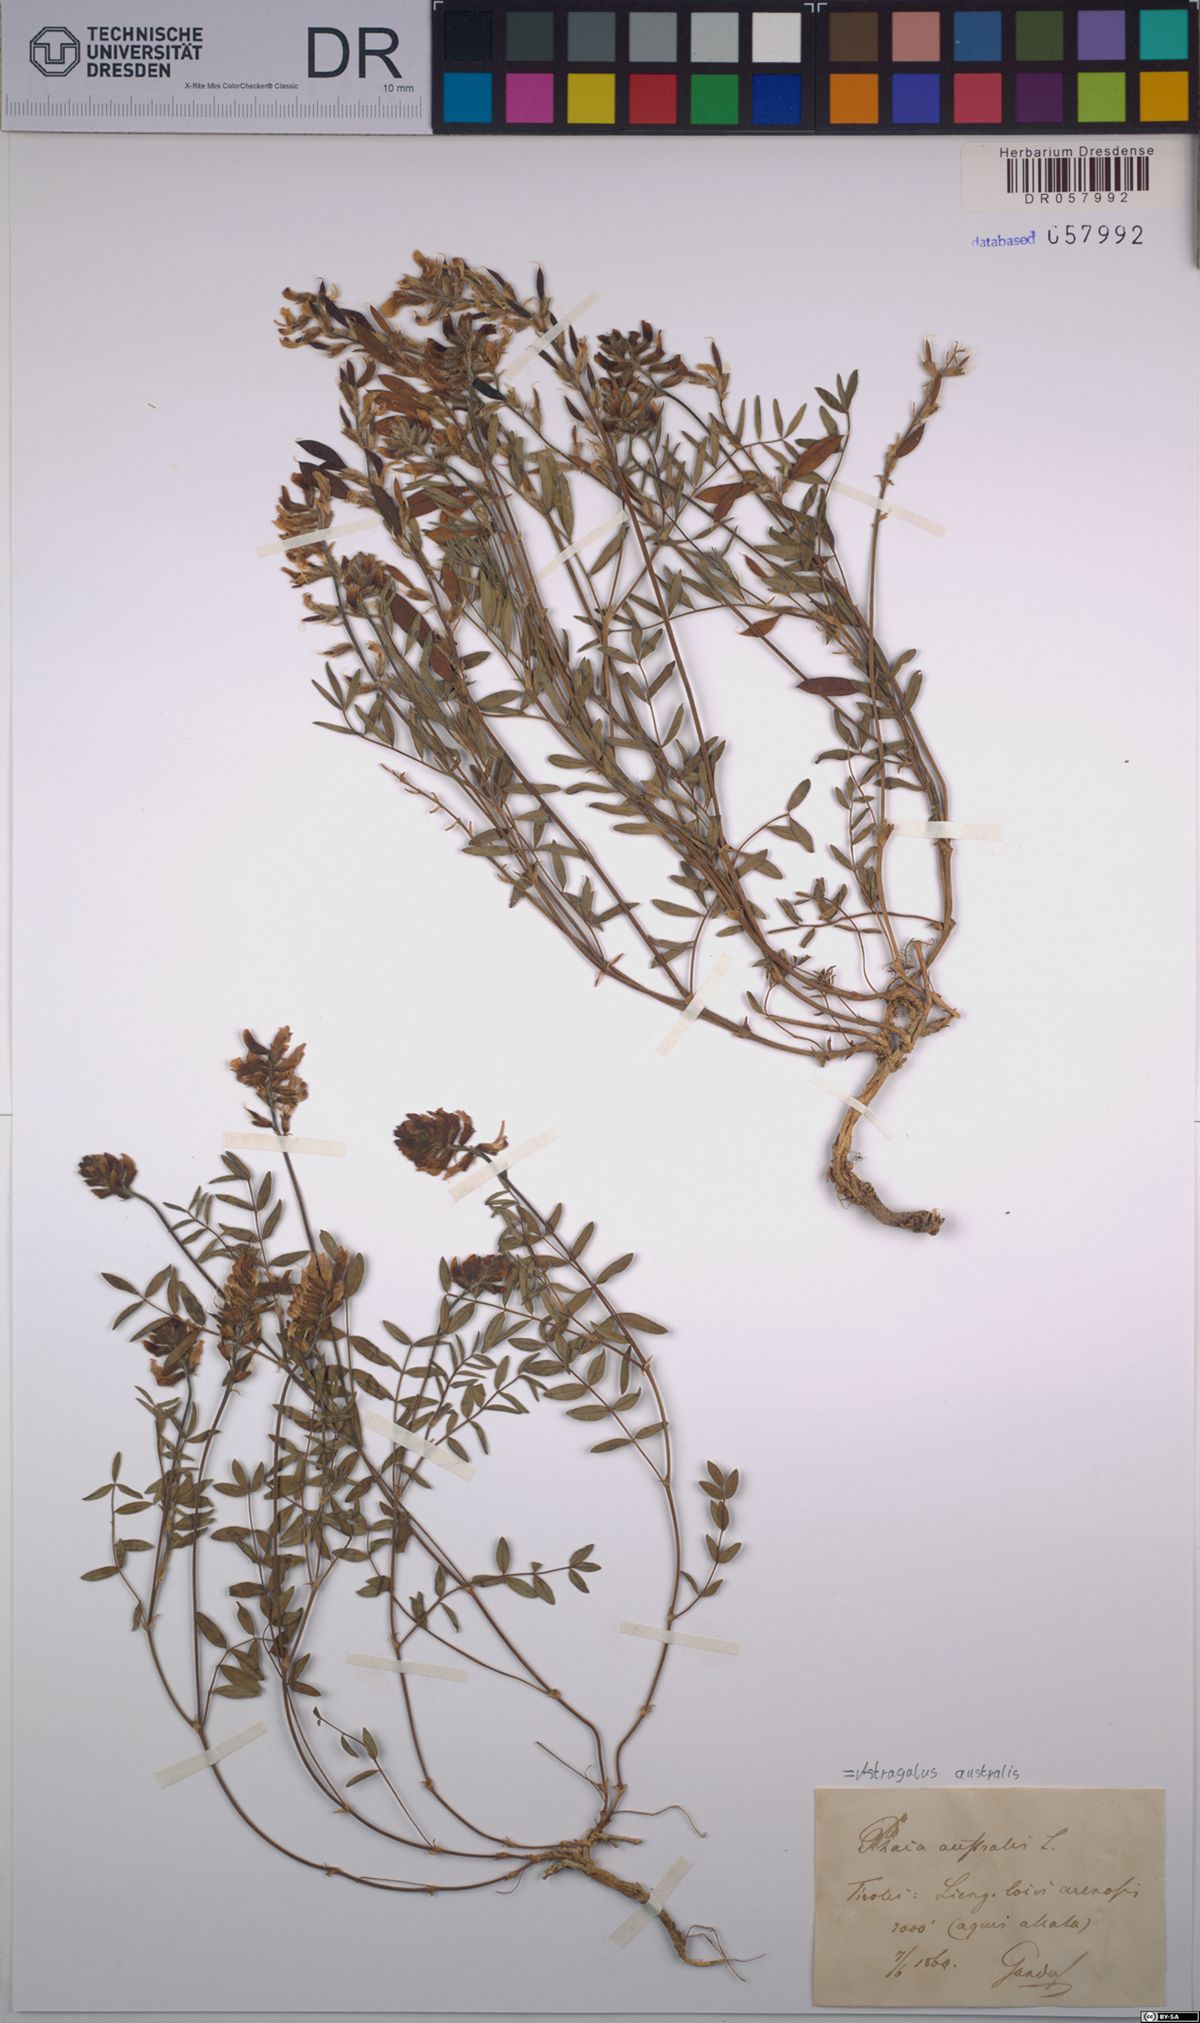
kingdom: Plantae
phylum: Tracheophyta
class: Magnoliopsida
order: Fabales
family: Fabaceae
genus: Astragalus
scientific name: Astragalus australis
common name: Indian milk-vetch
